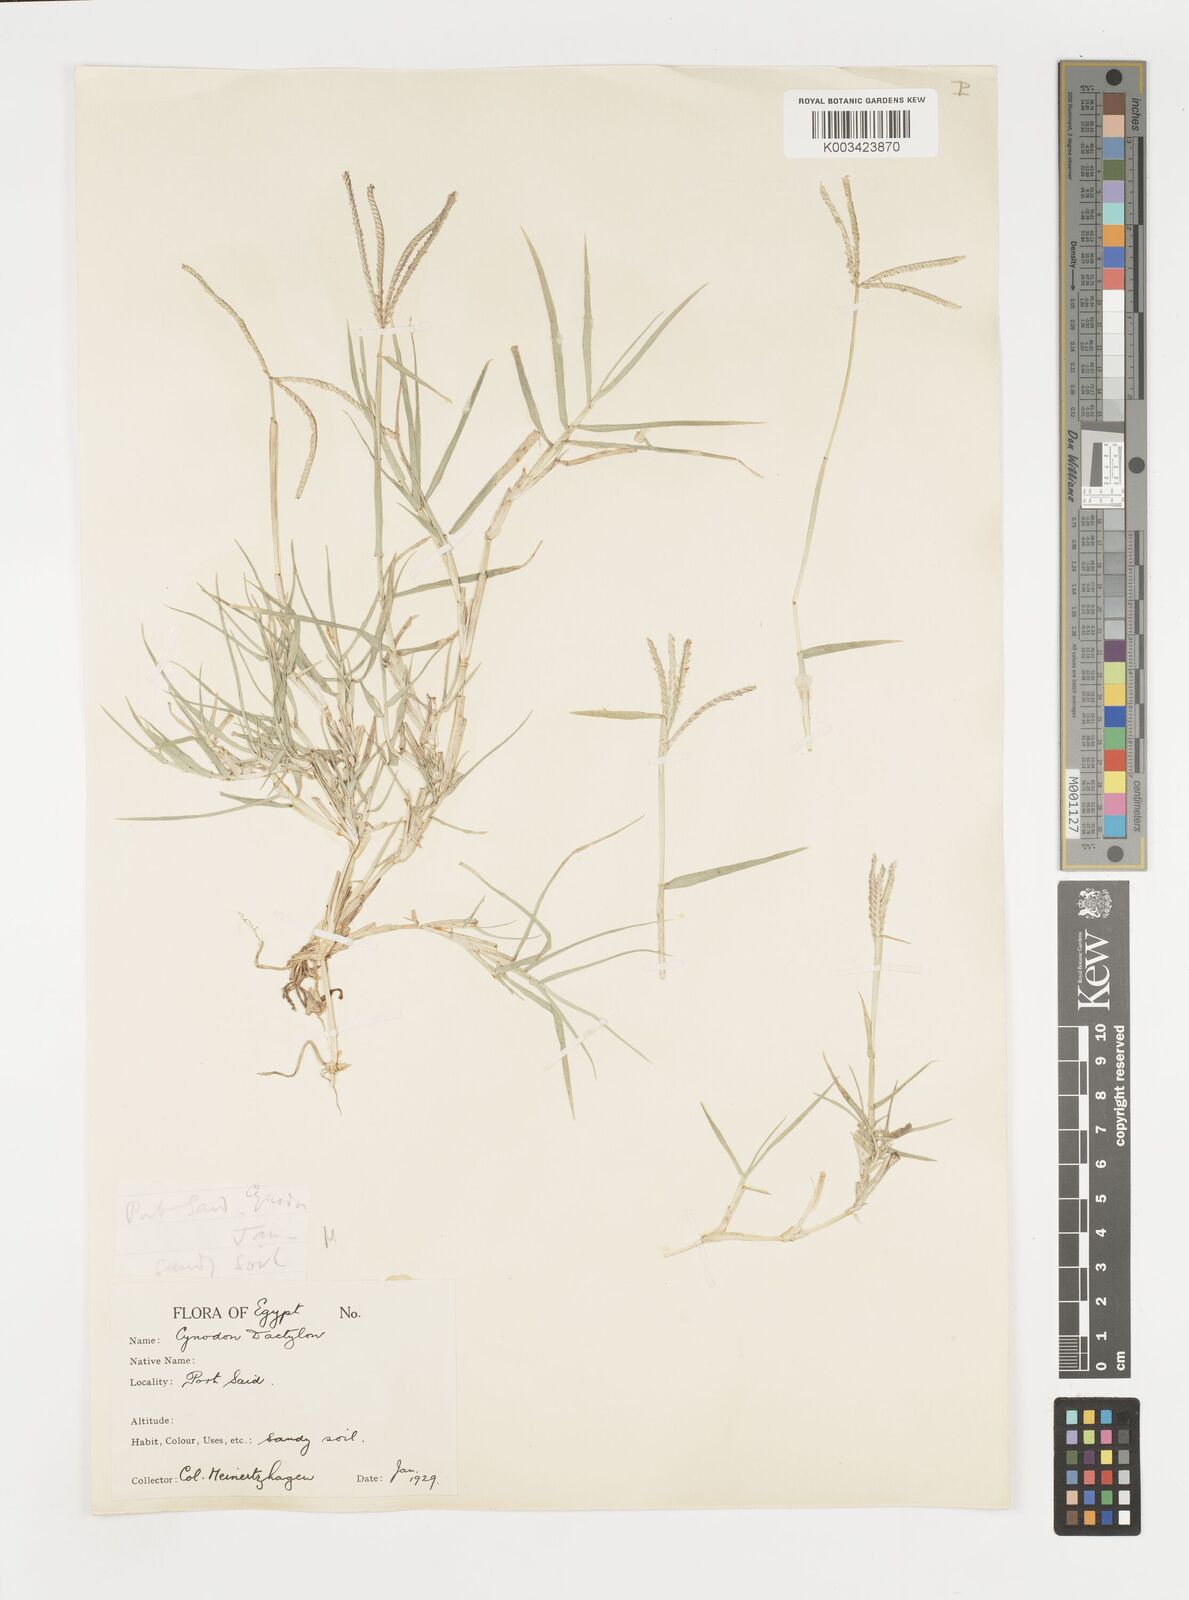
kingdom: Plantae
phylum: Tracheophyta
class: Liliopsida
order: Poales
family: Poaceae
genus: Cynodon
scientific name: Cynodon dactylon
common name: Bermuda grass
